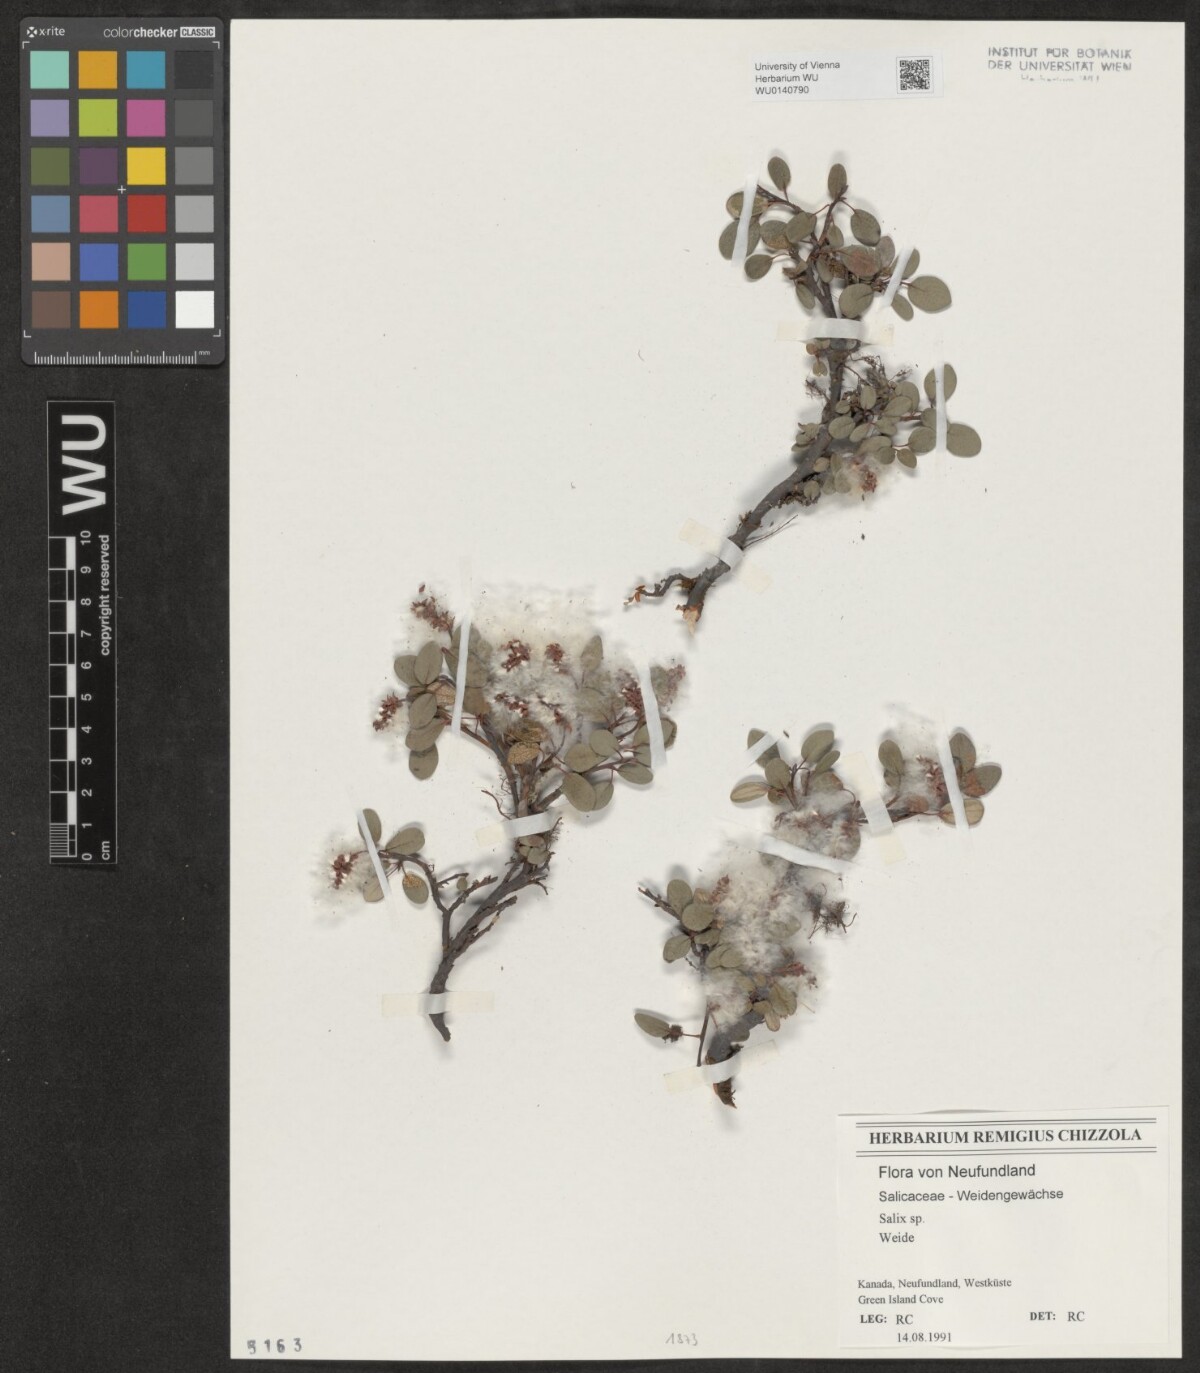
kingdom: Plantae
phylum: Tracheophyta
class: Magnoliopsida
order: Malpighiales
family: Salicaceae
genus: Salix
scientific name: Salix
